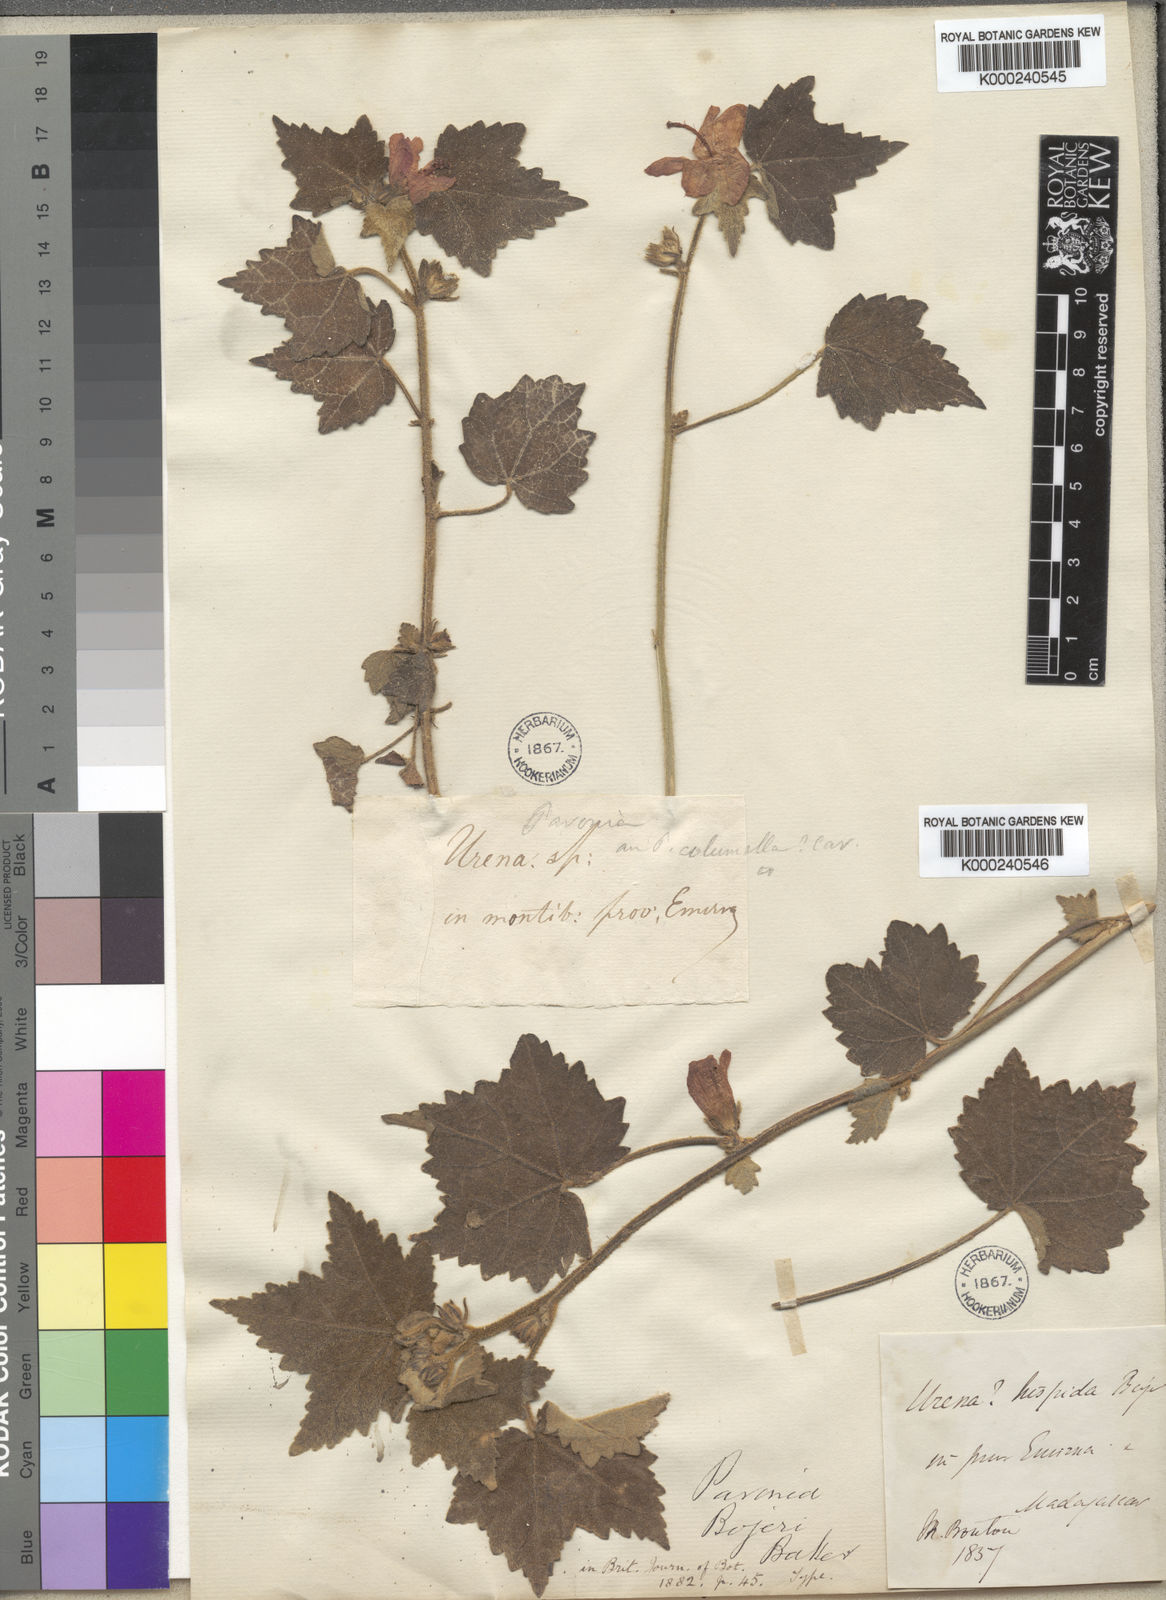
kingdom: Plantae
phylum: Tracheophyta
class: Magnoliopsida
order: Malvales
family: Malvaceae
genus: Pavonia
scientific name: Pavonia urens
